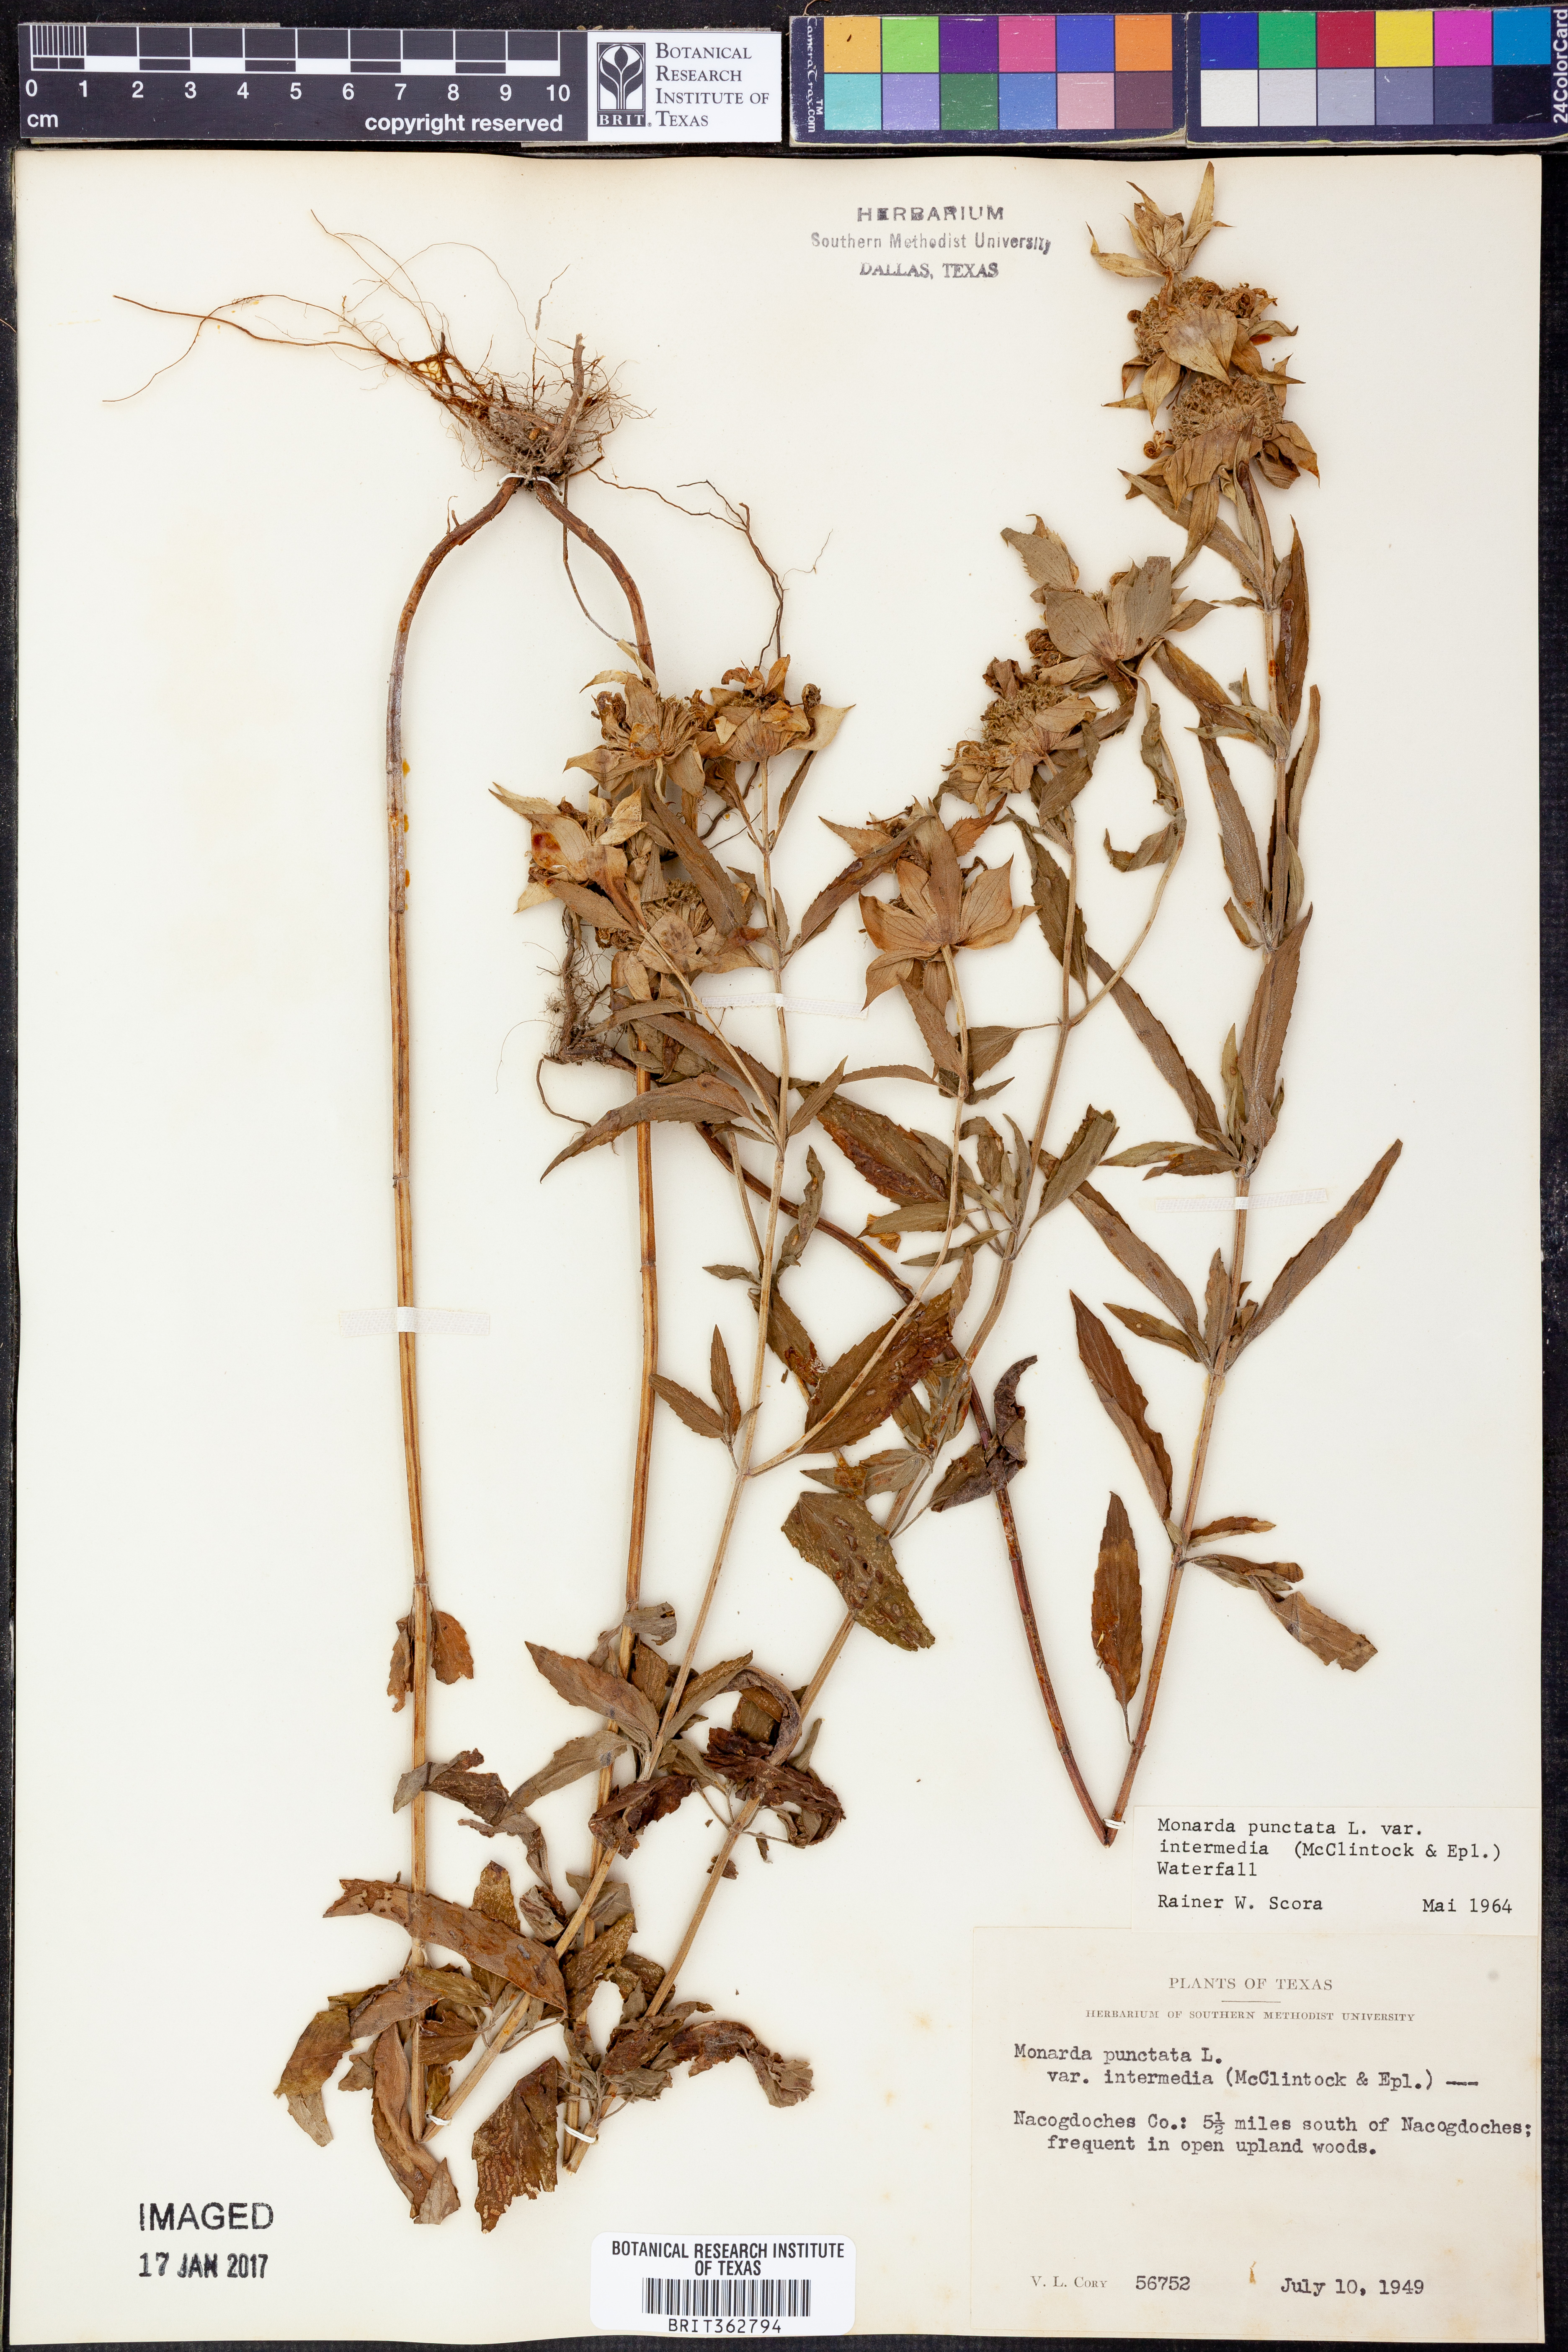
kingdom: Plantae
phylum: Tracheophyta
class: Magnoliopsida
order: Lamiales
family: Lamiaceae
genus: Monarda
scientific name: Monarda punctata
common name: Dotted monarda
